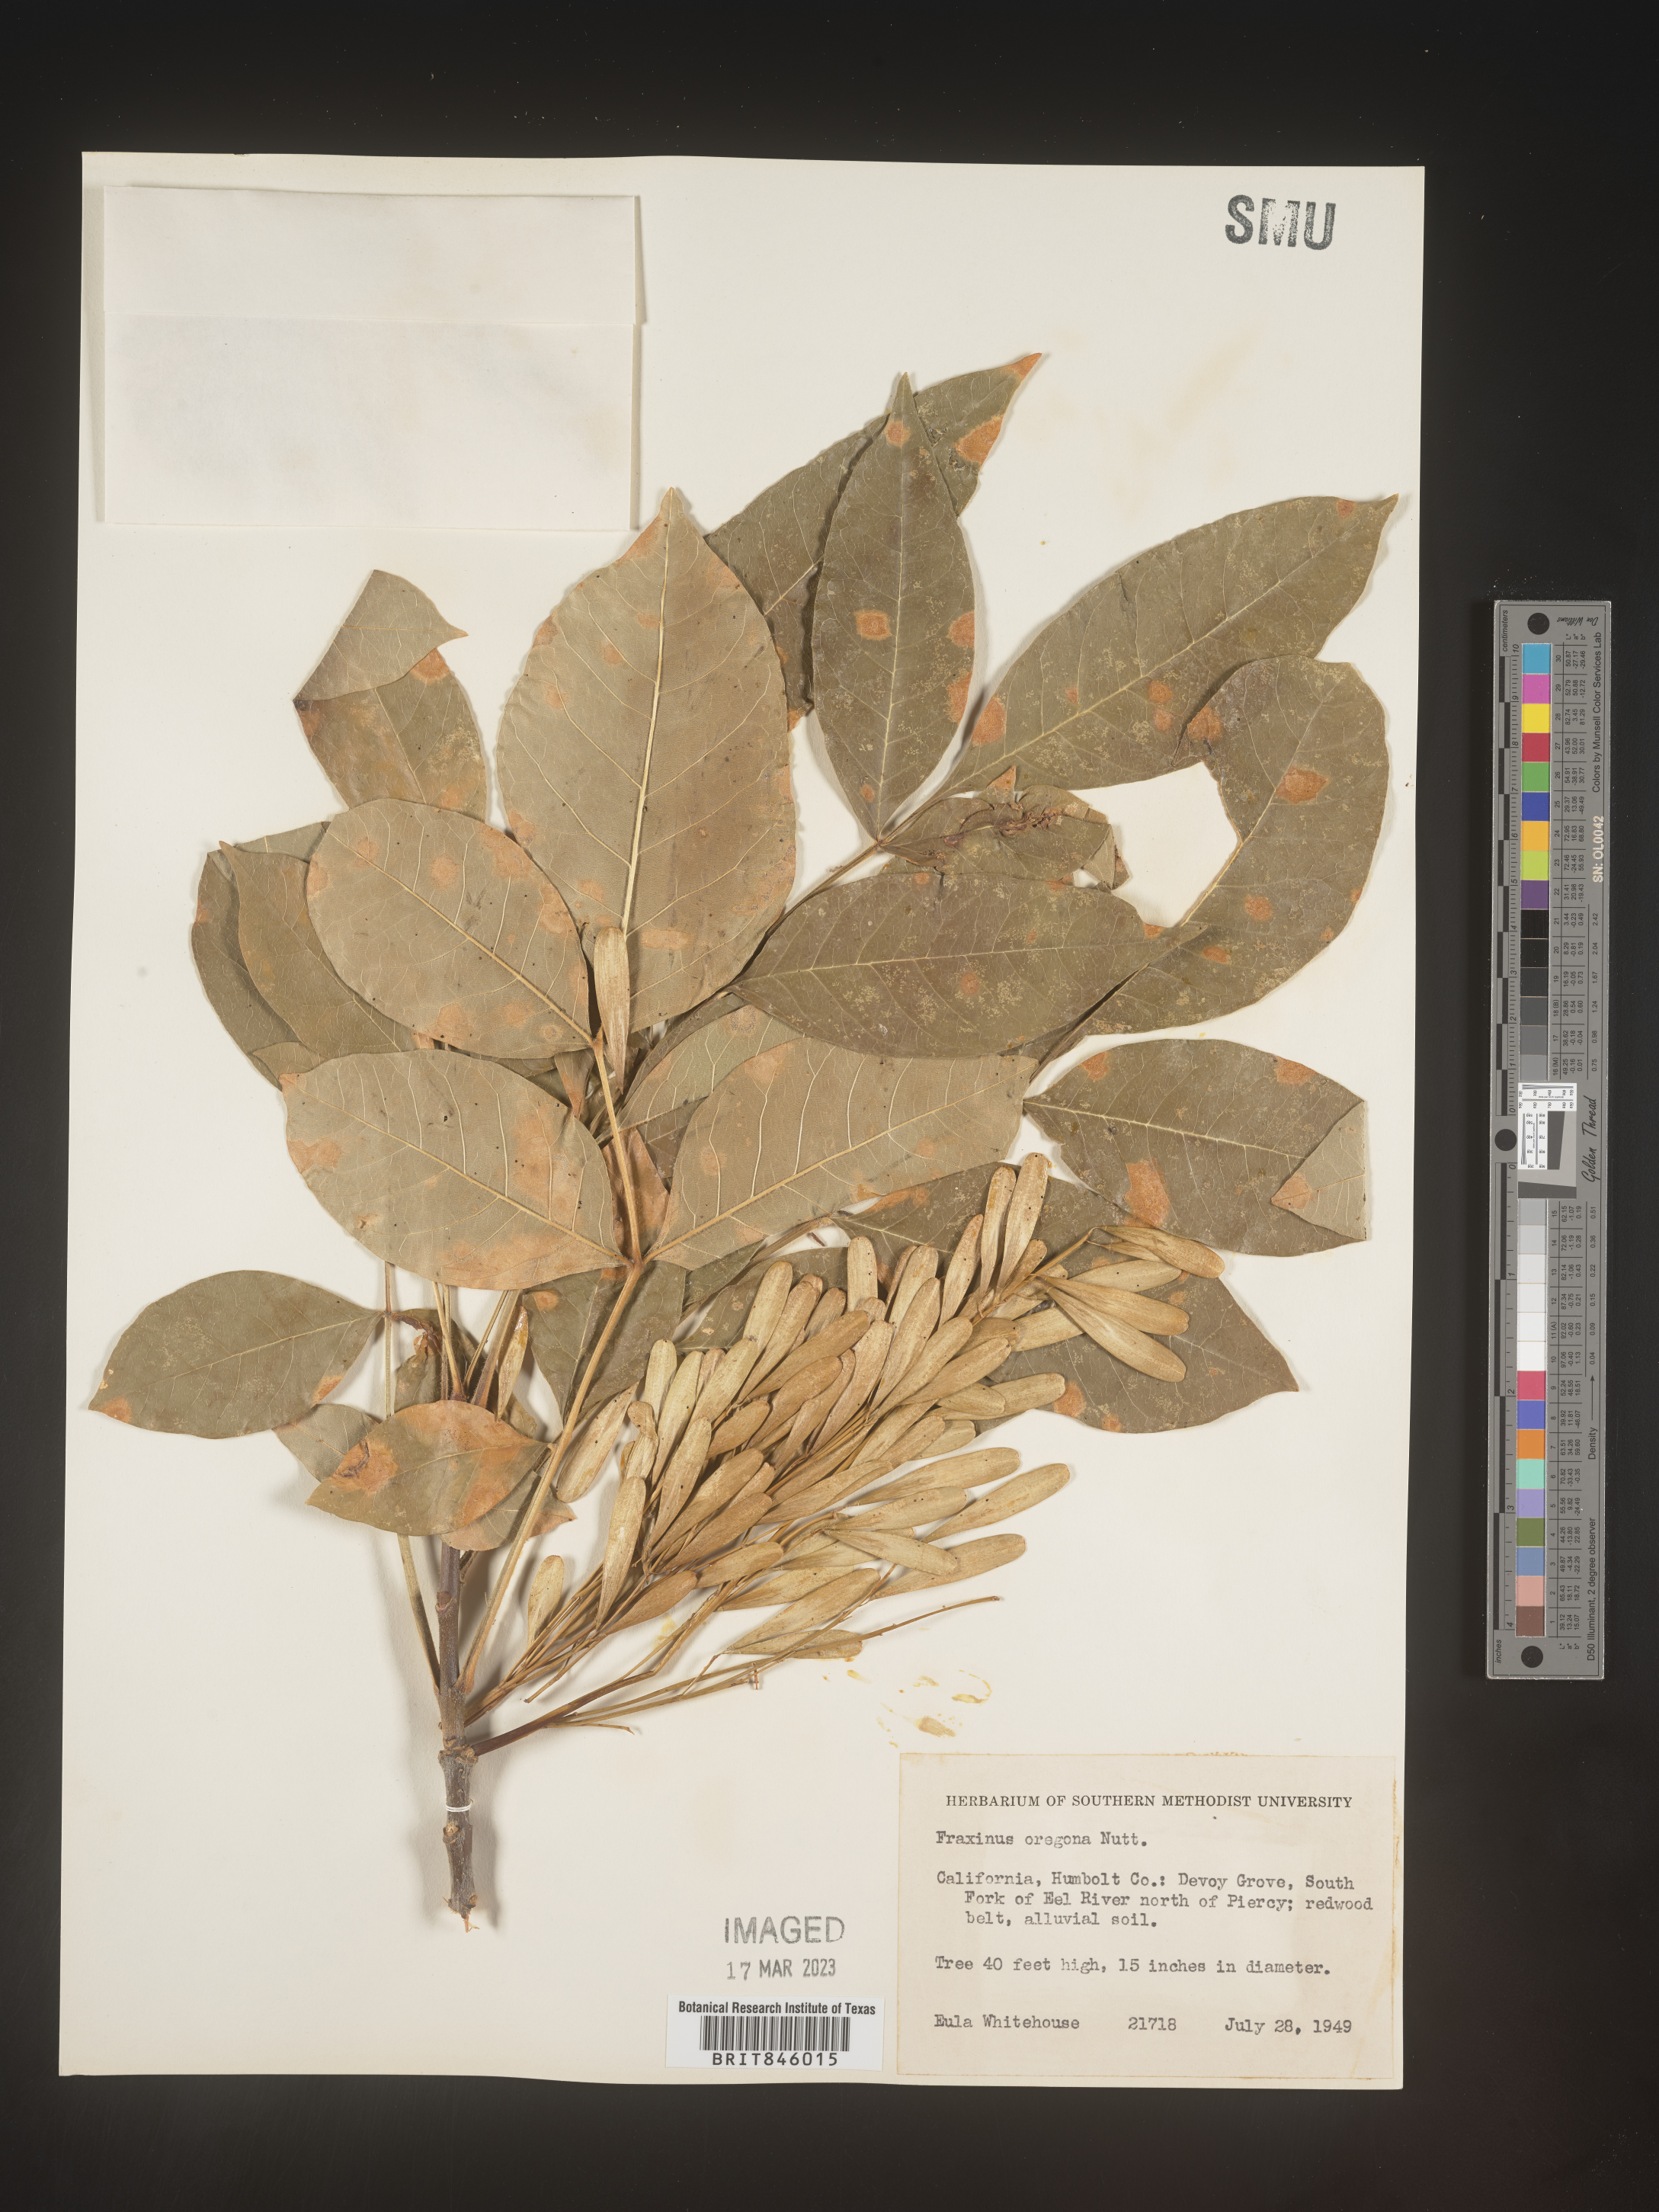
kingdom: Plantae
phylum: Tracheophyta
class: Magnoliopsida
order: Lamiales
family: Oleaceae
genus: Fraxinus
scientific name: Fraxinus latifolia
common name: Oregon ash
